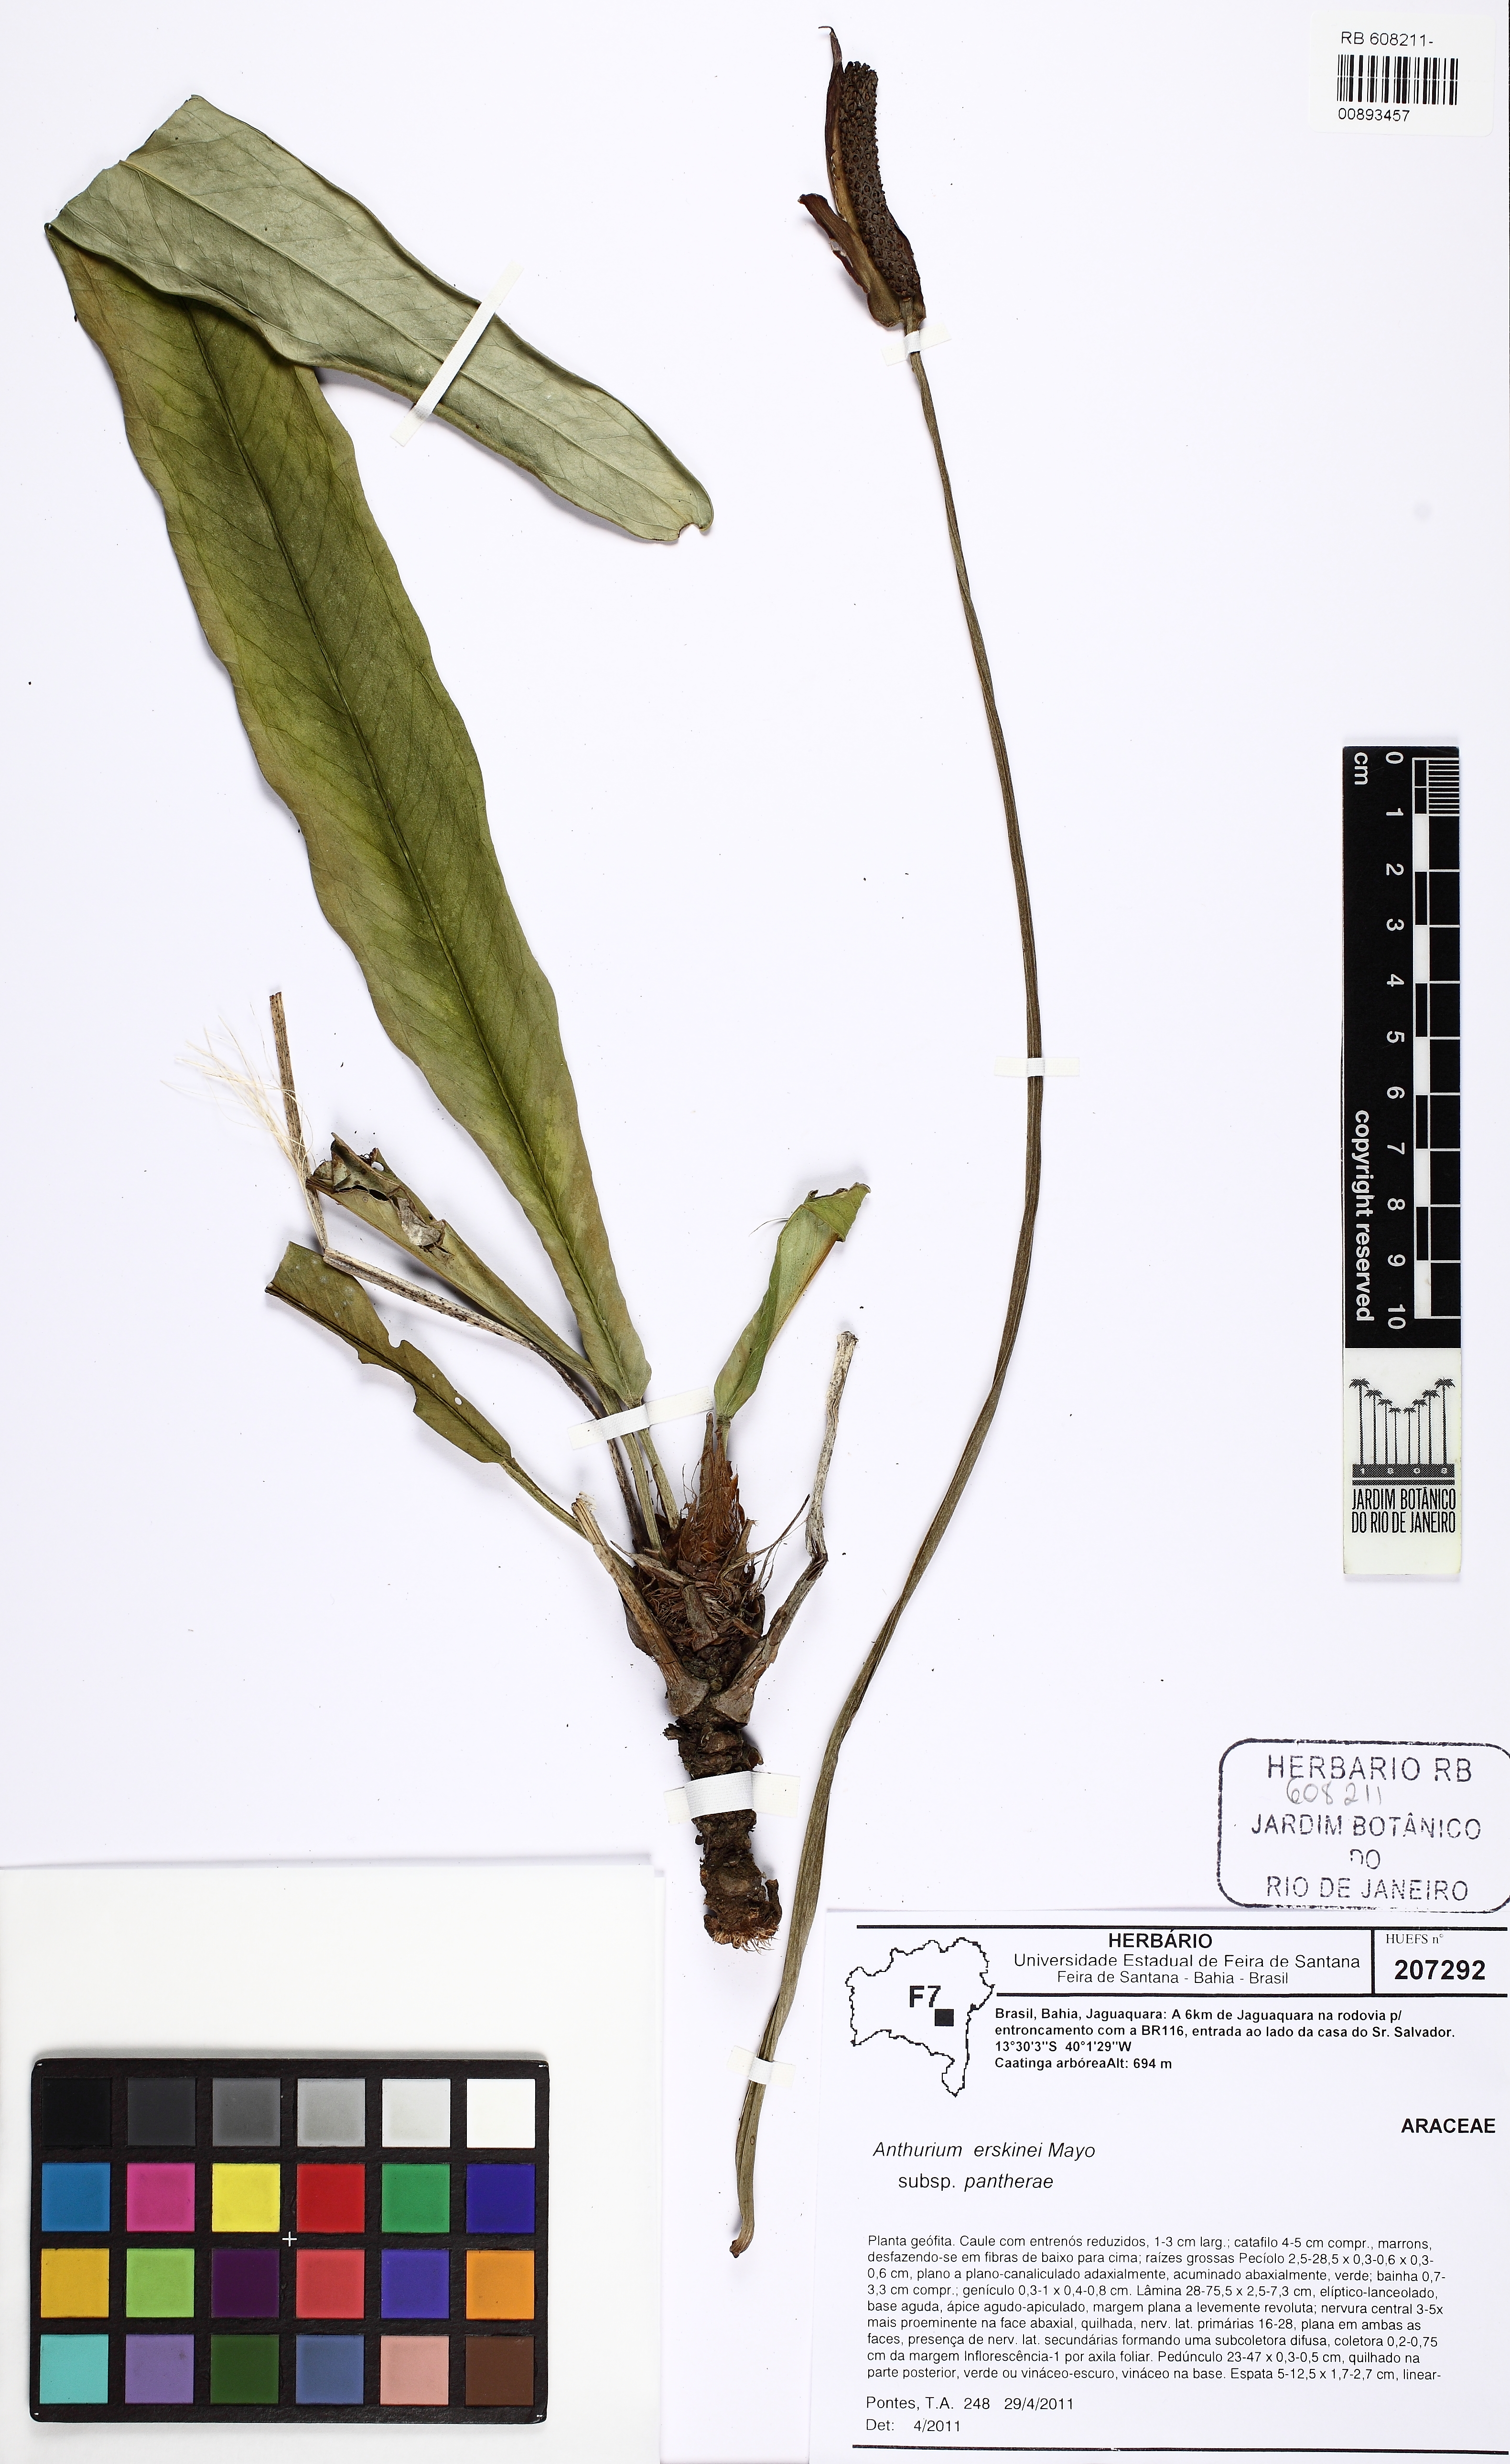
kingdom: Plantae
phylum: Tracheophyta
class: Liliopsida
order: Alismatales
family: Araceae
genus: Anthurium
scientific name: Anthurium erskinei
